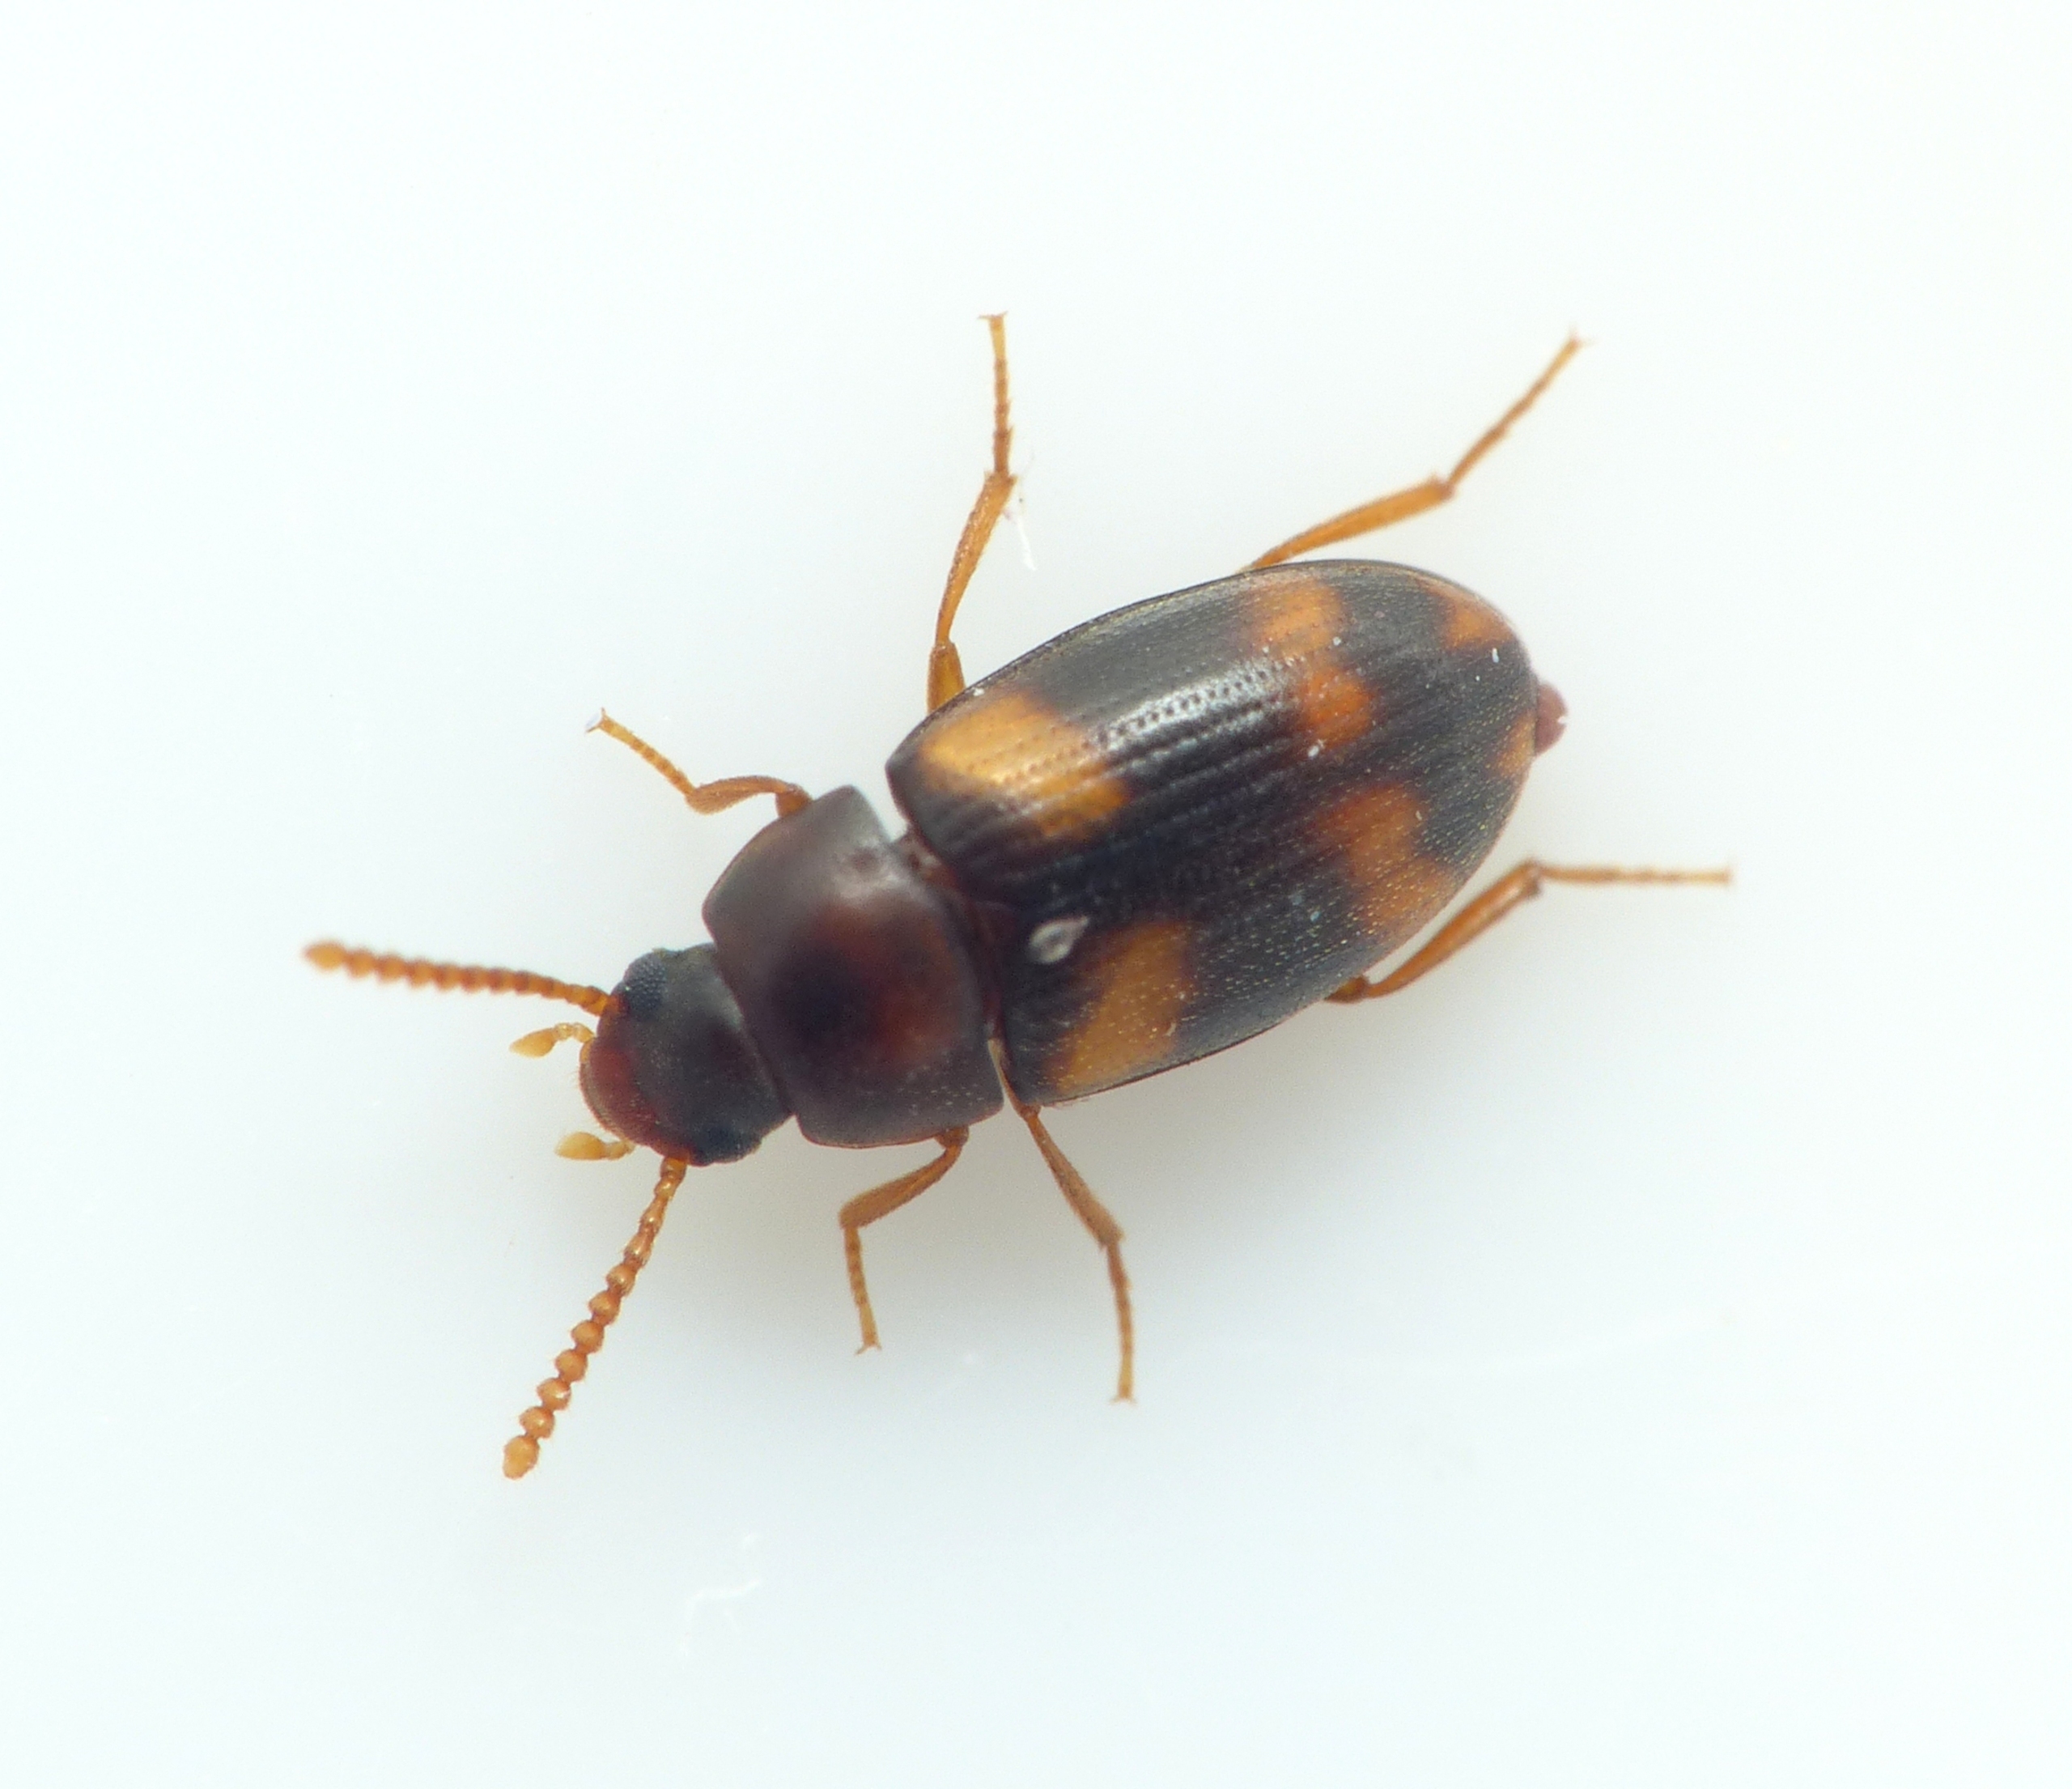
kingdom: Animalia
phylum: Arthropoda
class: Insecta
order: Coleoptera
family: Tenebrionidae
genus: Alphitophagus
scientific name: Alphitophagus bifasciatus
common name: Kompostskyggebille
